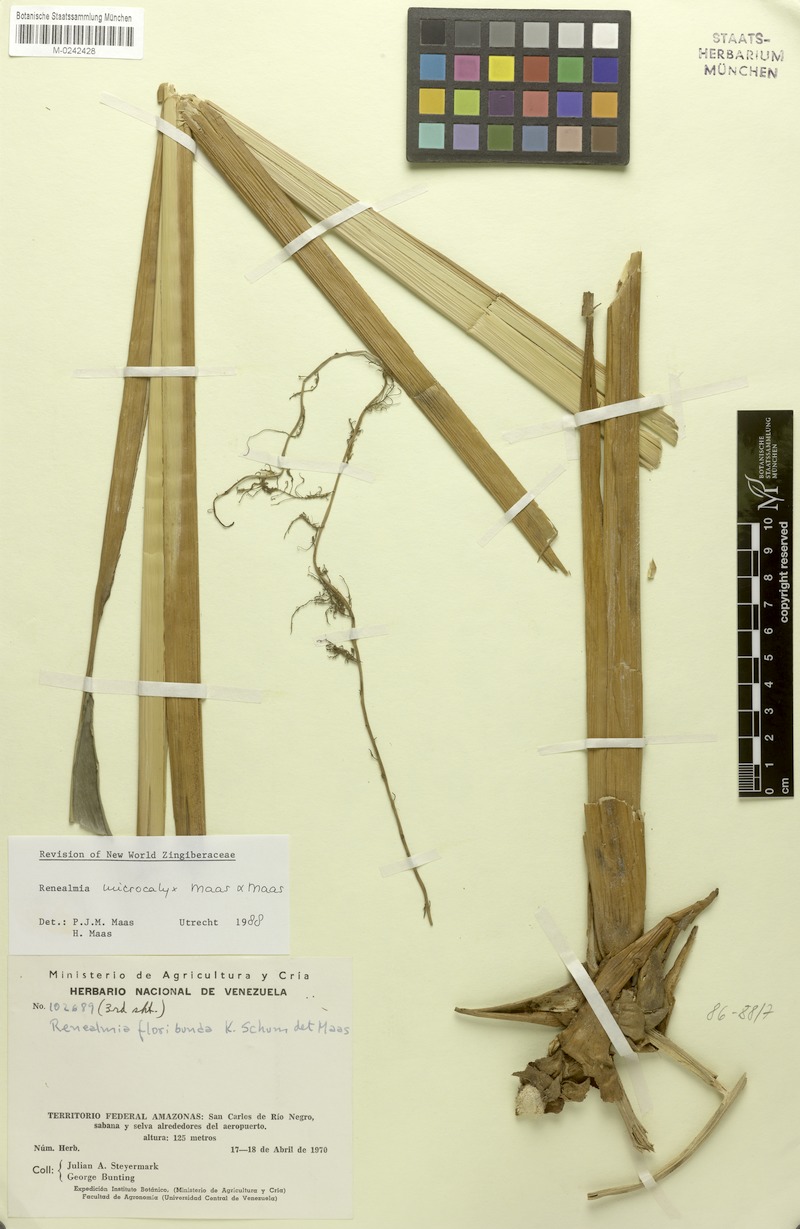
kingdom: Plantae
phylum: Tracheophyta
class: Liliopsida
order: Zingiberales
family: Zingiberaceae
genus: Renealmia
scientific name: Renealmia microcalyx
